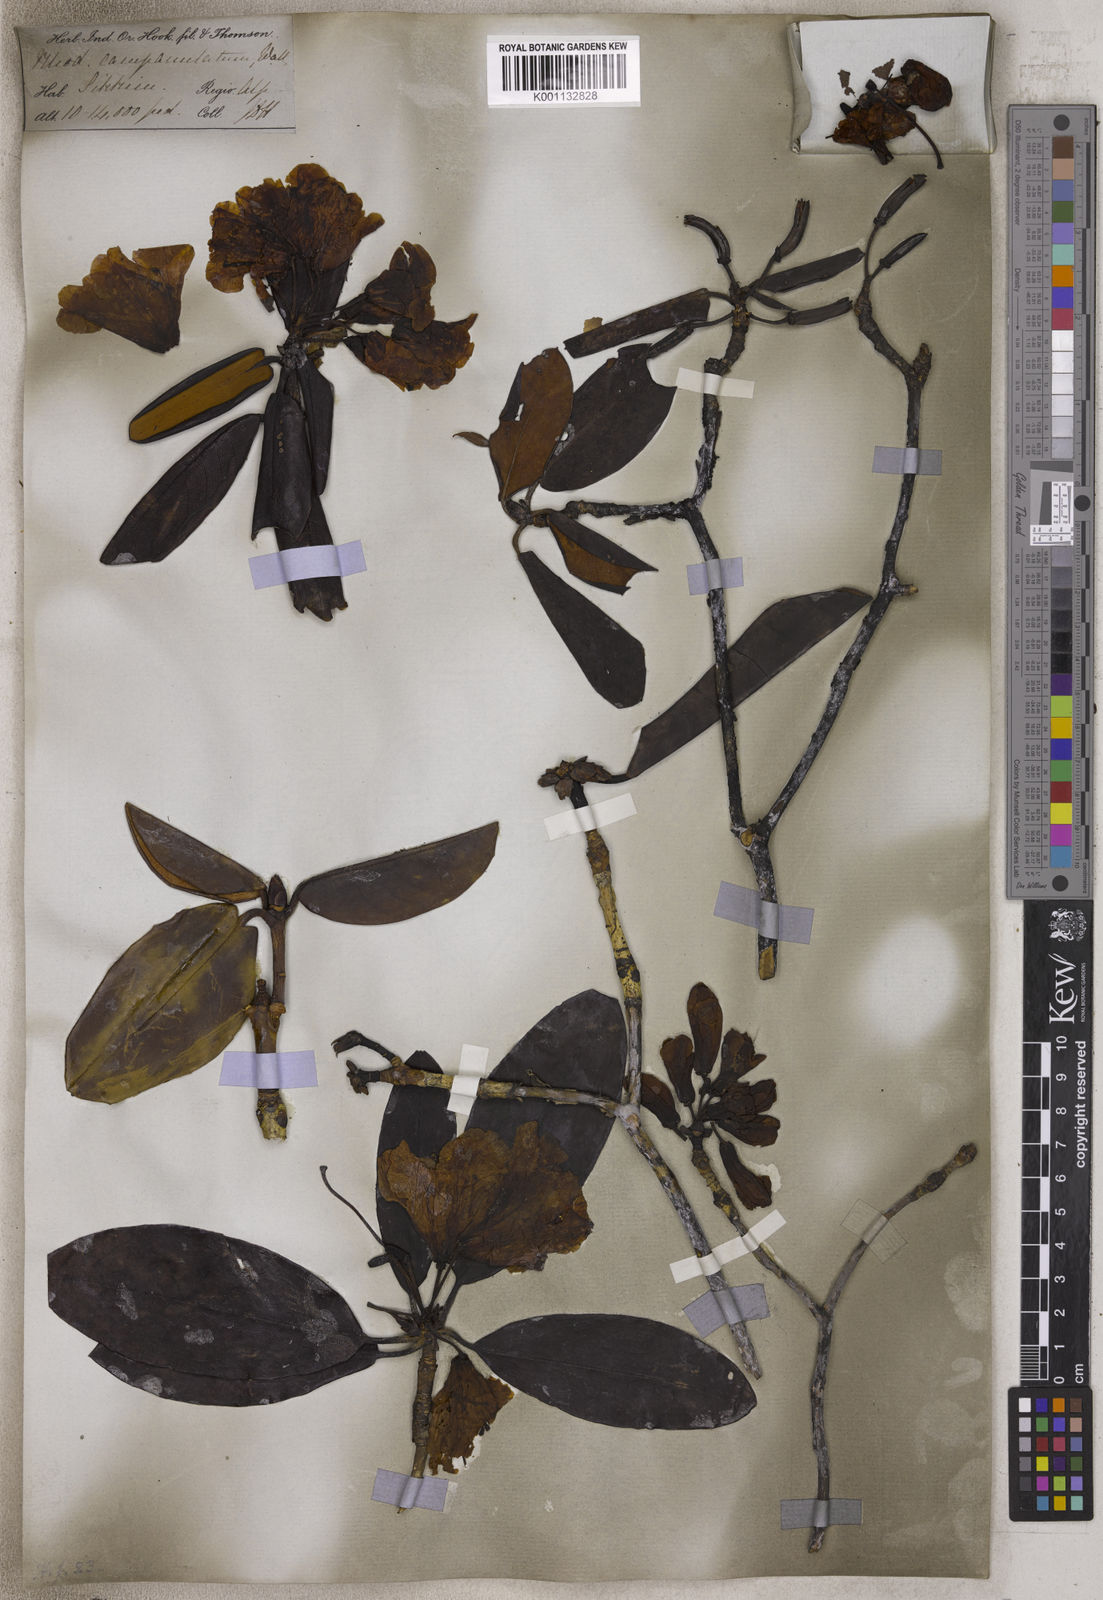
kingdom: Plantae
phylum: Tracheophyta
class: Magnoliopsida
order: Ericales
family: Ericaceae
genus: Rhododendron
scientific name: Rhododendron campanulatum
